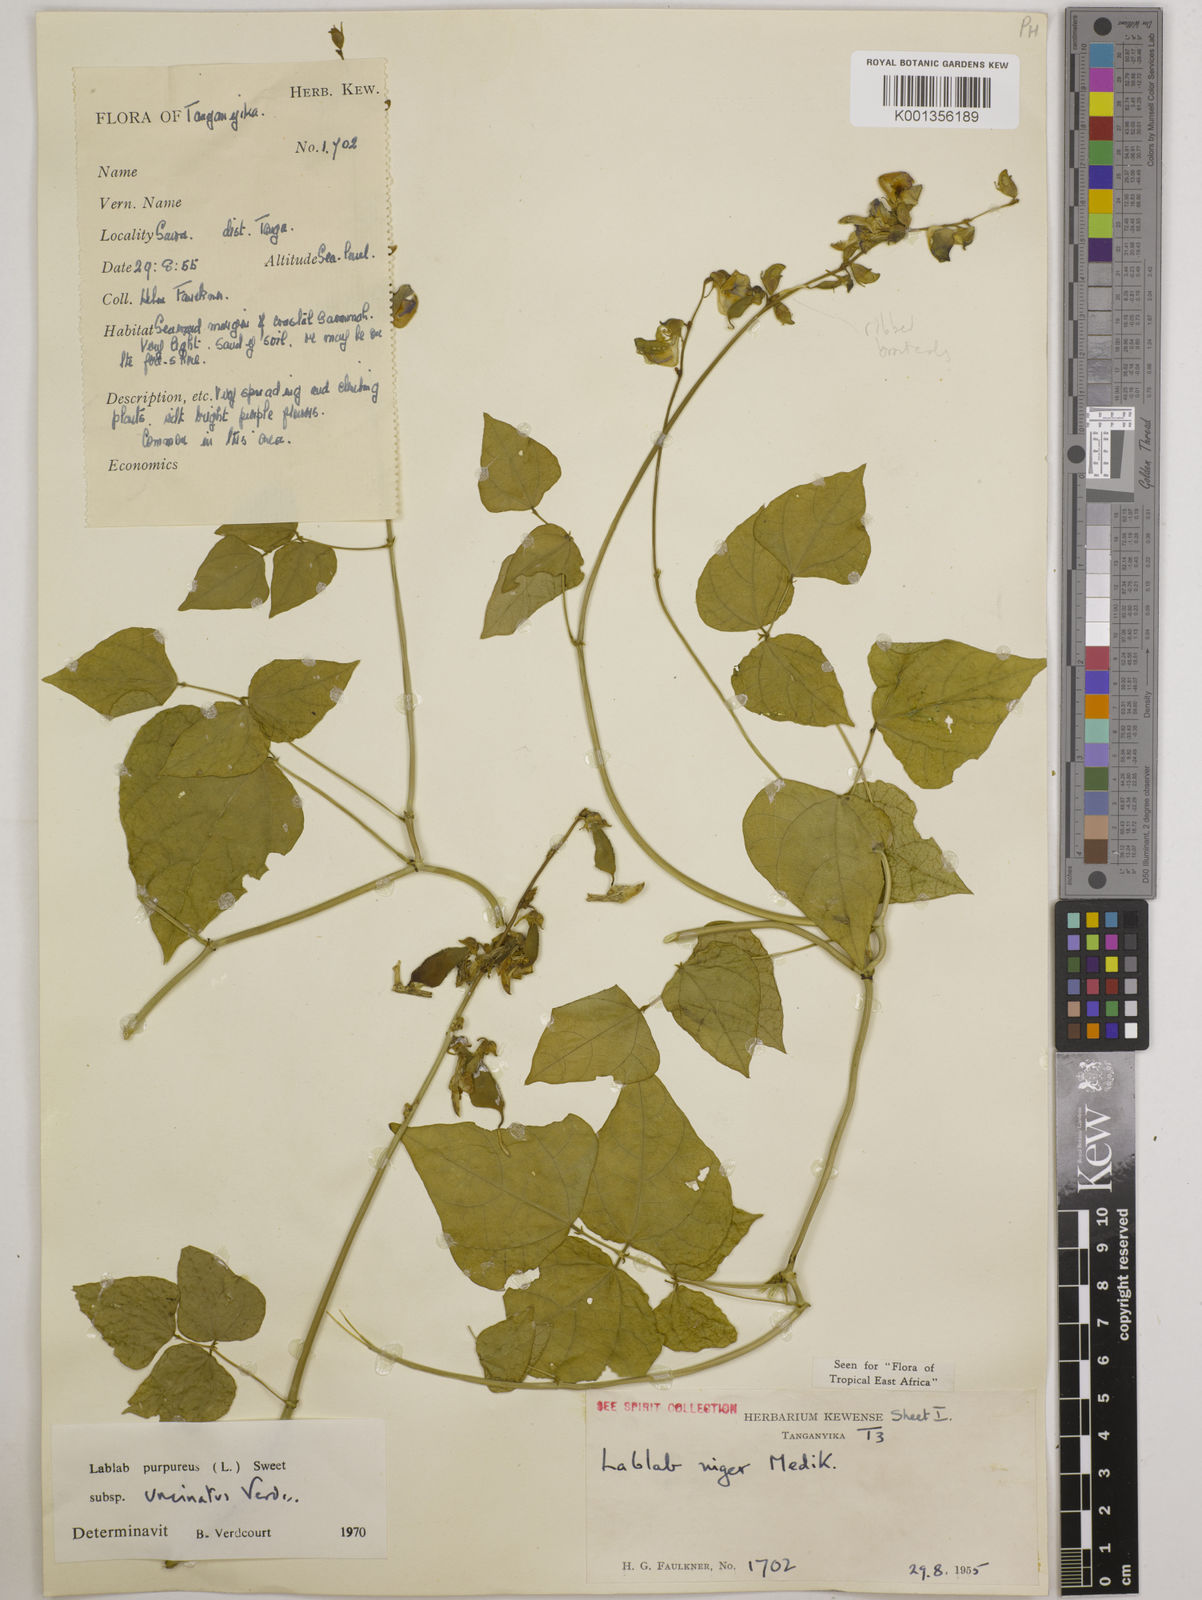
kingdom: Plantae
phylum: Tracheophyta
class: Magnoliopsida
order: Fabales
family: Fabaceae
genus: Lablab
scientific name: Lablab purpureus
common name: Lablab-bean
